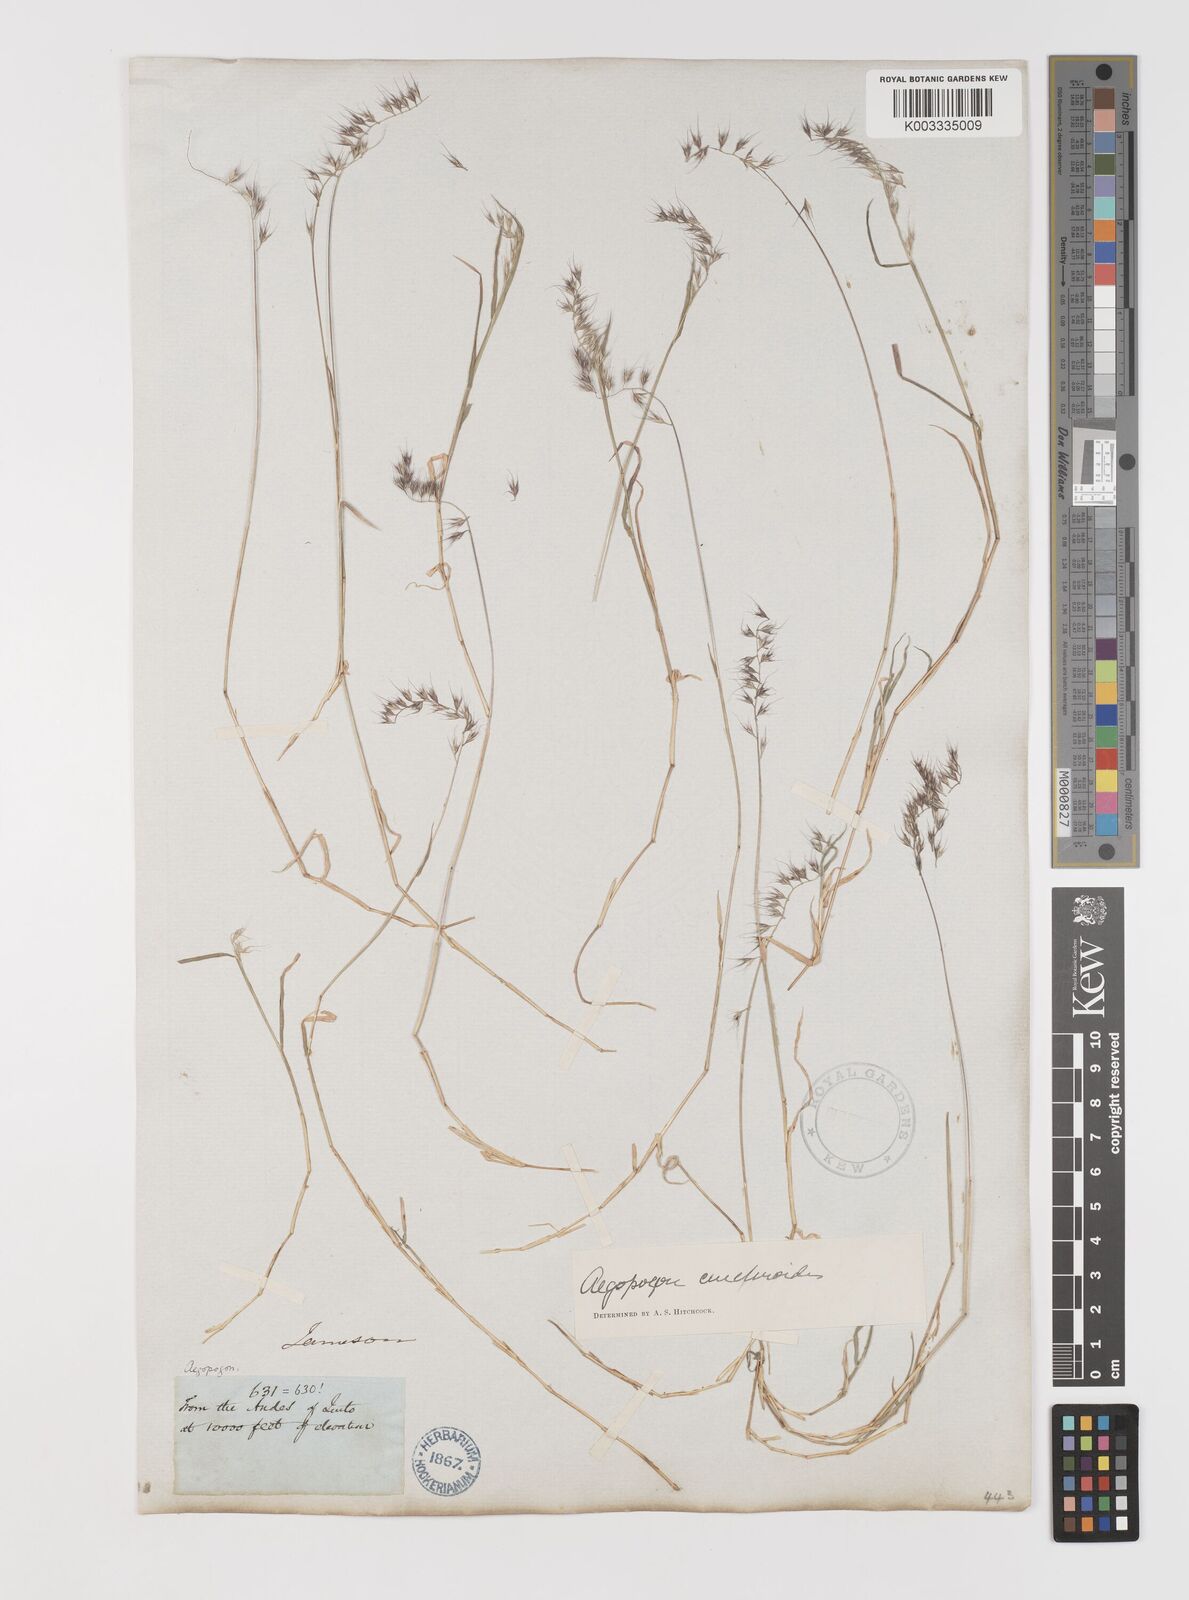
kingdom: Plantae
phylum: Tracheophyta
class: Liliopsida
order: Poales
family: Poaceae
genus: Muhlenbergia
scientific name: Muhlenbergia cenchroides
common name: Relaxgrass
